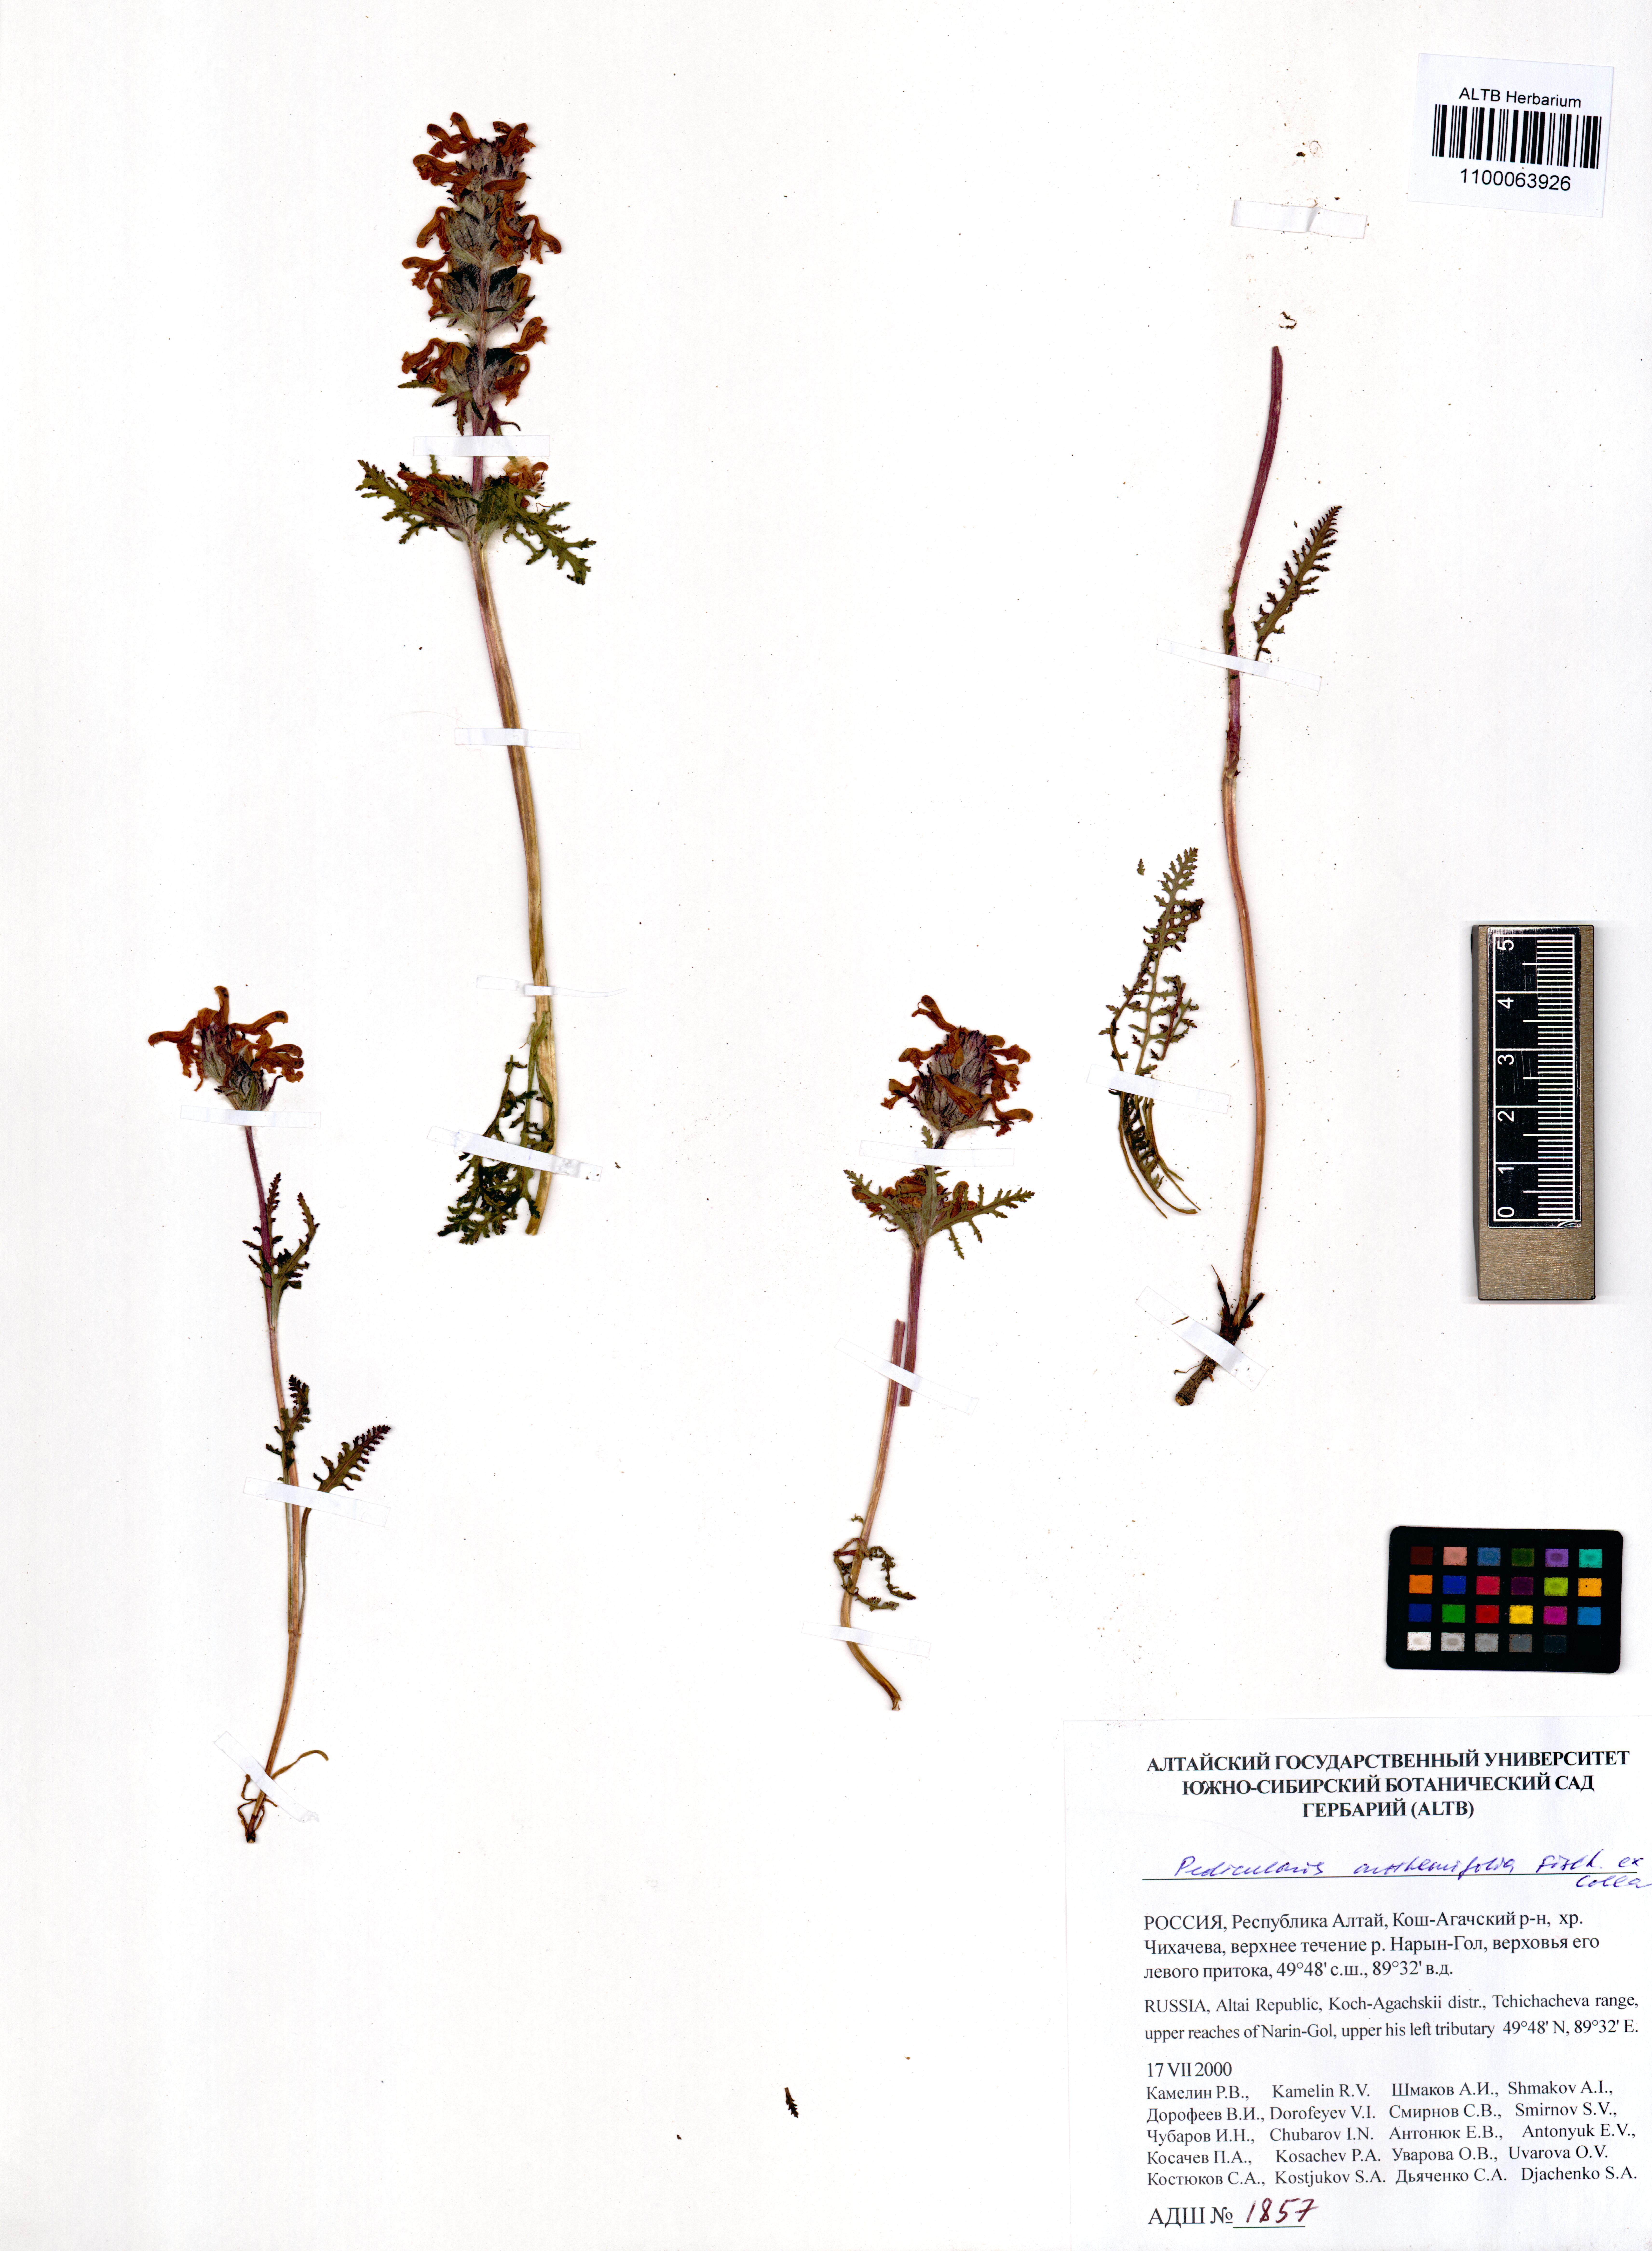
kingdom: Plantae
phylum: Tracheophyta
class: Magnoliopsida
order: Lamiales
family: Orobanchaceae
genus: Pedicularis
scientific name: Pedicularis amoena
